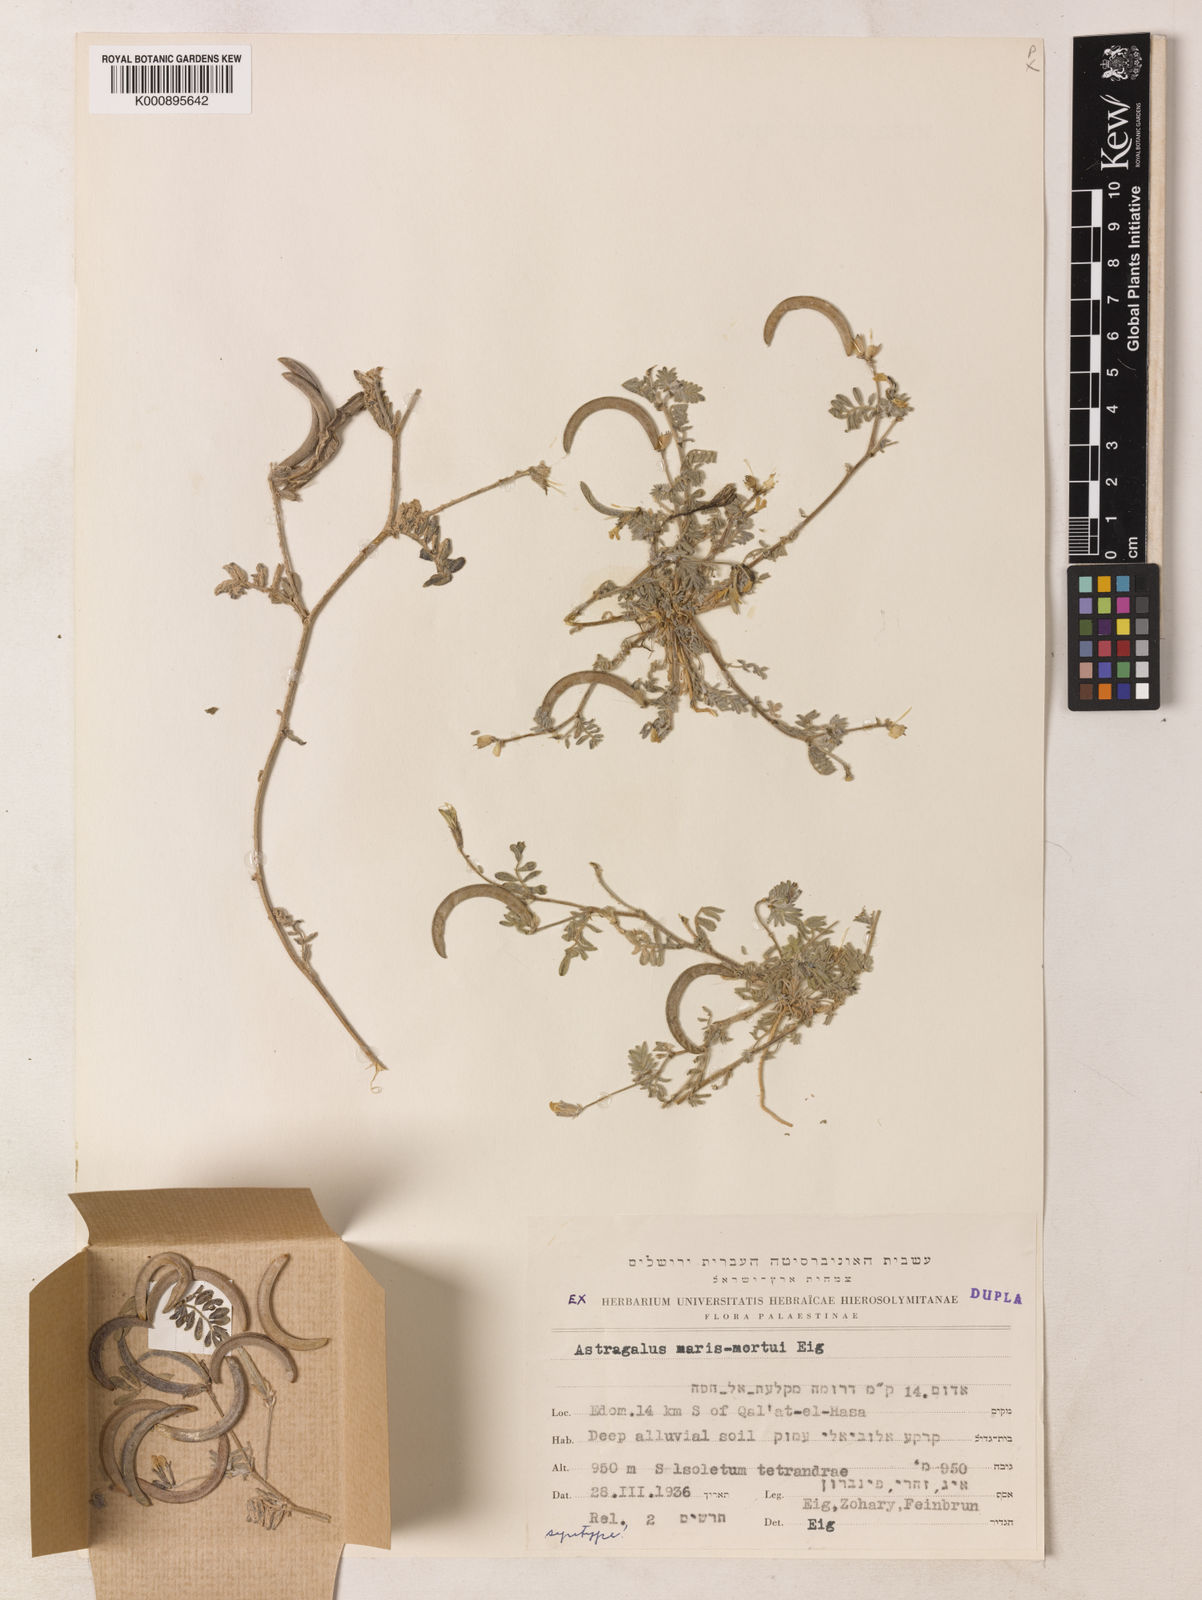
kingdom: Plantae
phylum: Tracheophyta
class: Magnoliopsida
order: Fabales
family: Fabaceae
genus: Astragalus
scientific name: Astragalus intercedens
